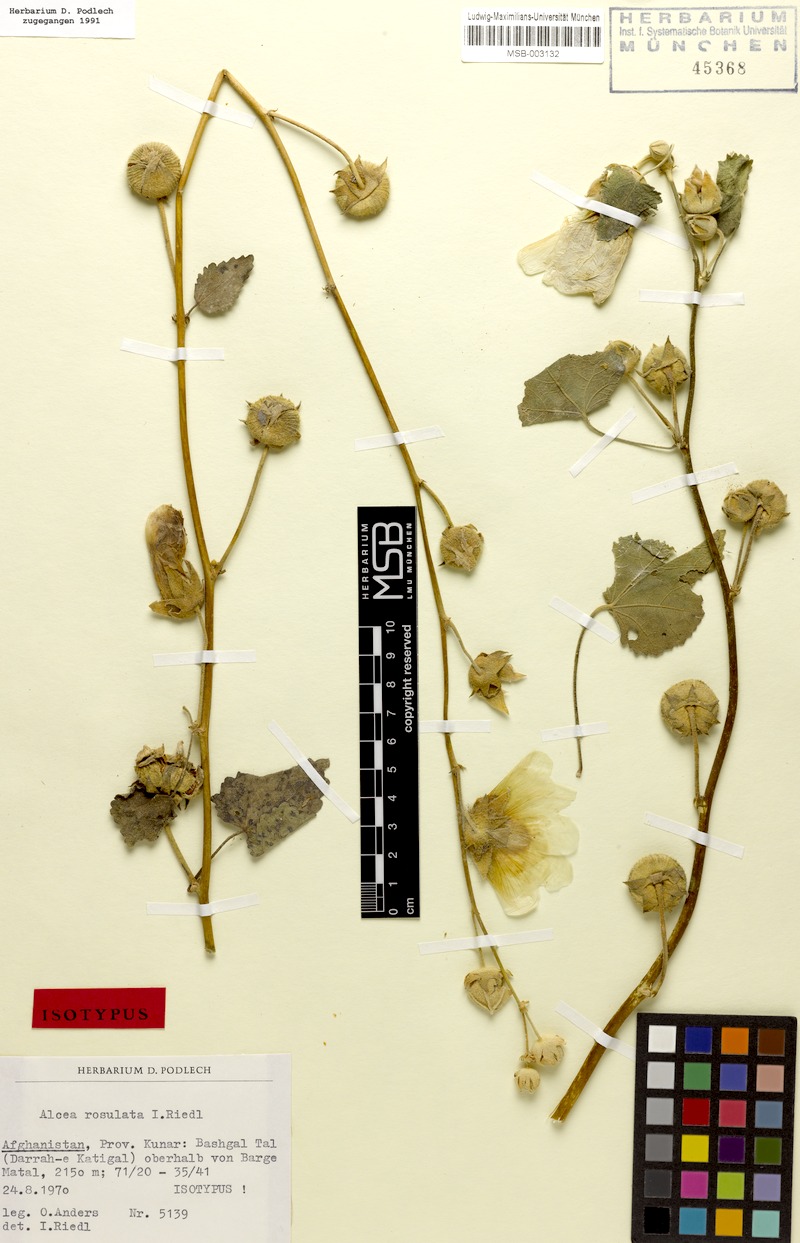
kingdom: Plantae
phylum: Tracheophyta
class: Magnoliopsida
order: Malvales
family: Malvaceae
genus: Alcea
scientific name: Alcea rosulata
